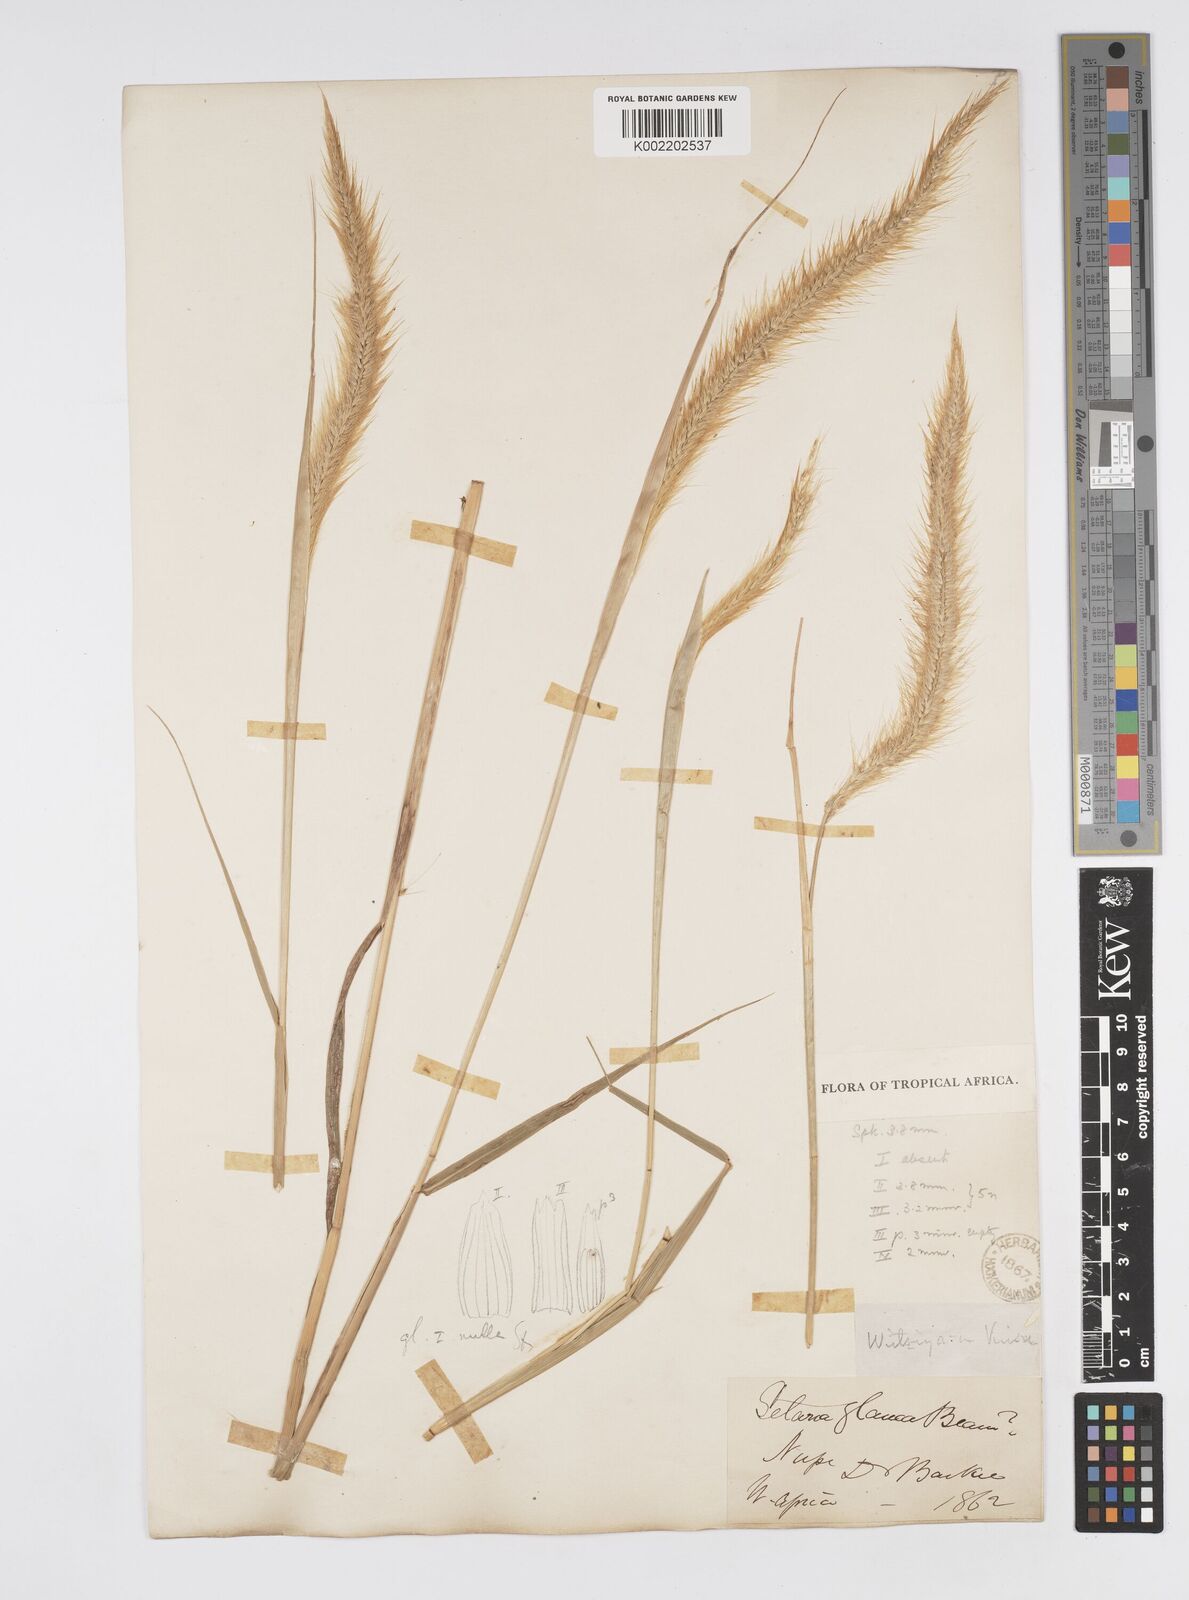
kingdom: Plantae
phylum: Tracheophyta
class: Liliopsida
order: Poales
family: Poaceae
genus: Setaria
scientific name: Setaria parviflora
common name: Knotroot bristle-grass
